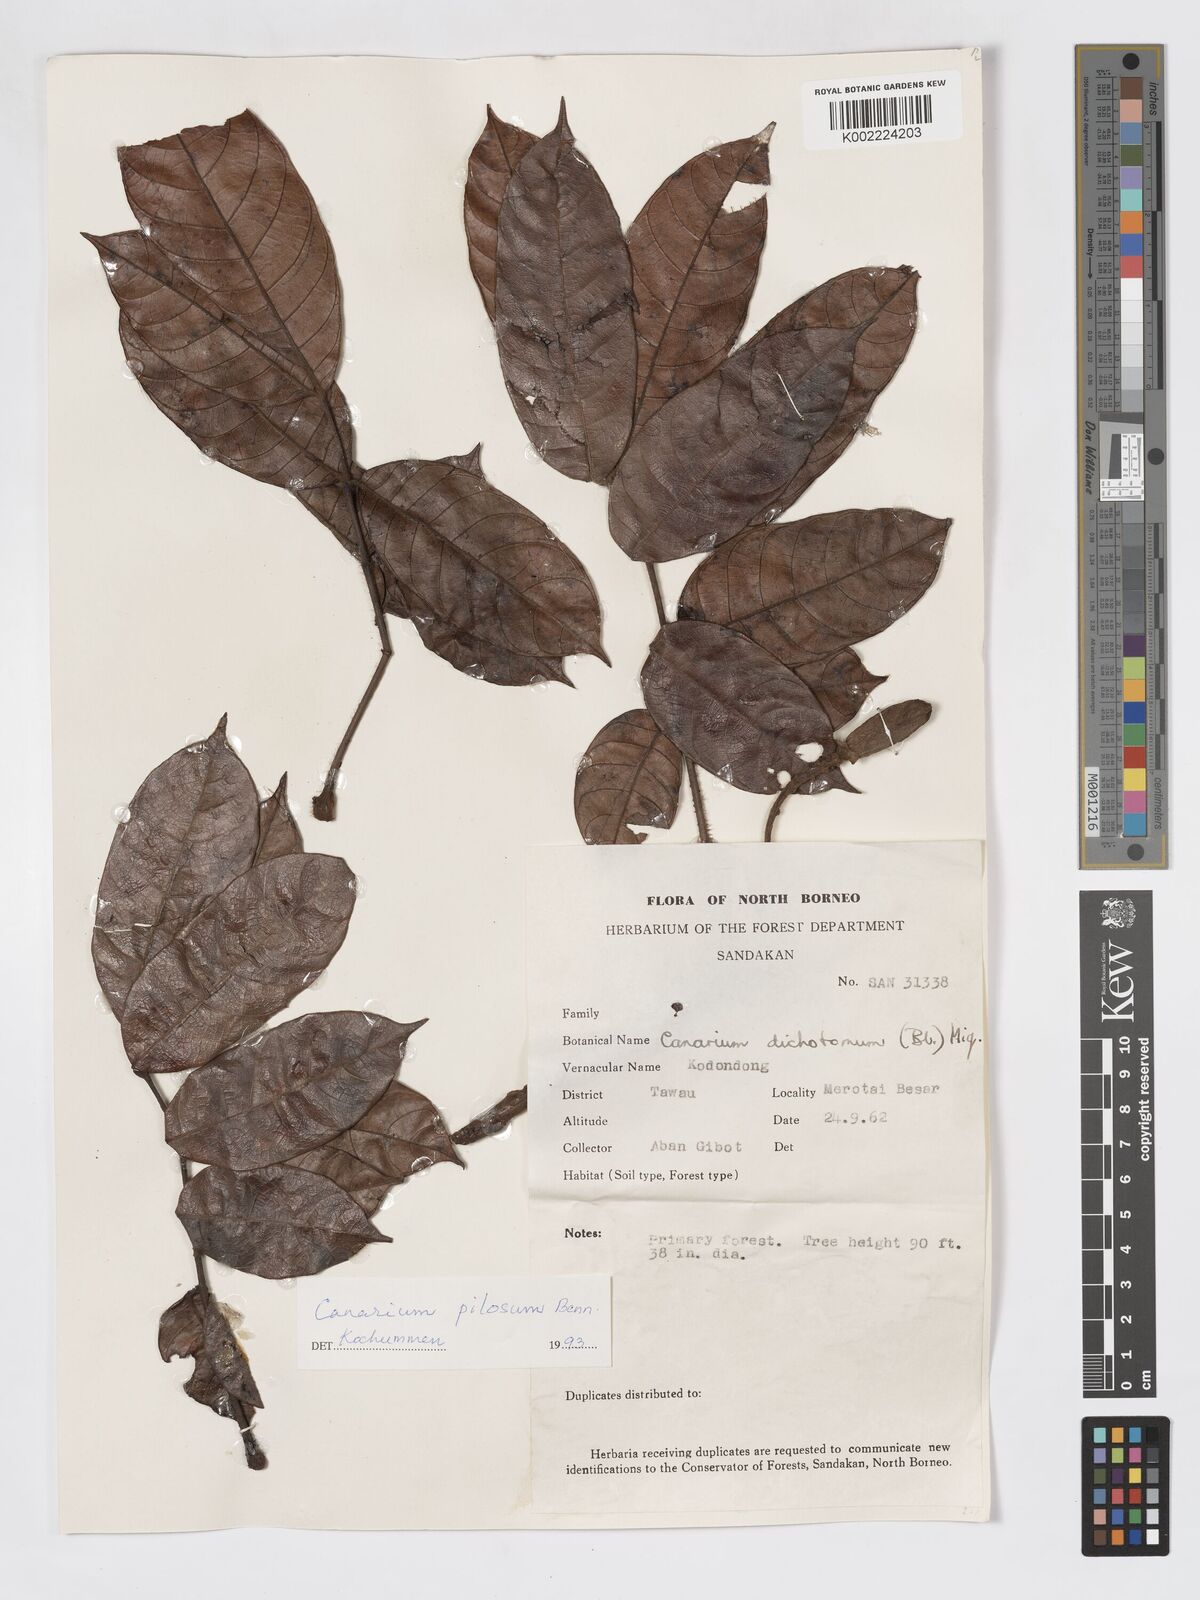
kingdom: Plantae
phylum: Tracheophyta
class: Magnoliopsida
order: Sapindales
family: Burseraceae
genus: Canarium
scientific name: Canarium pilosum
